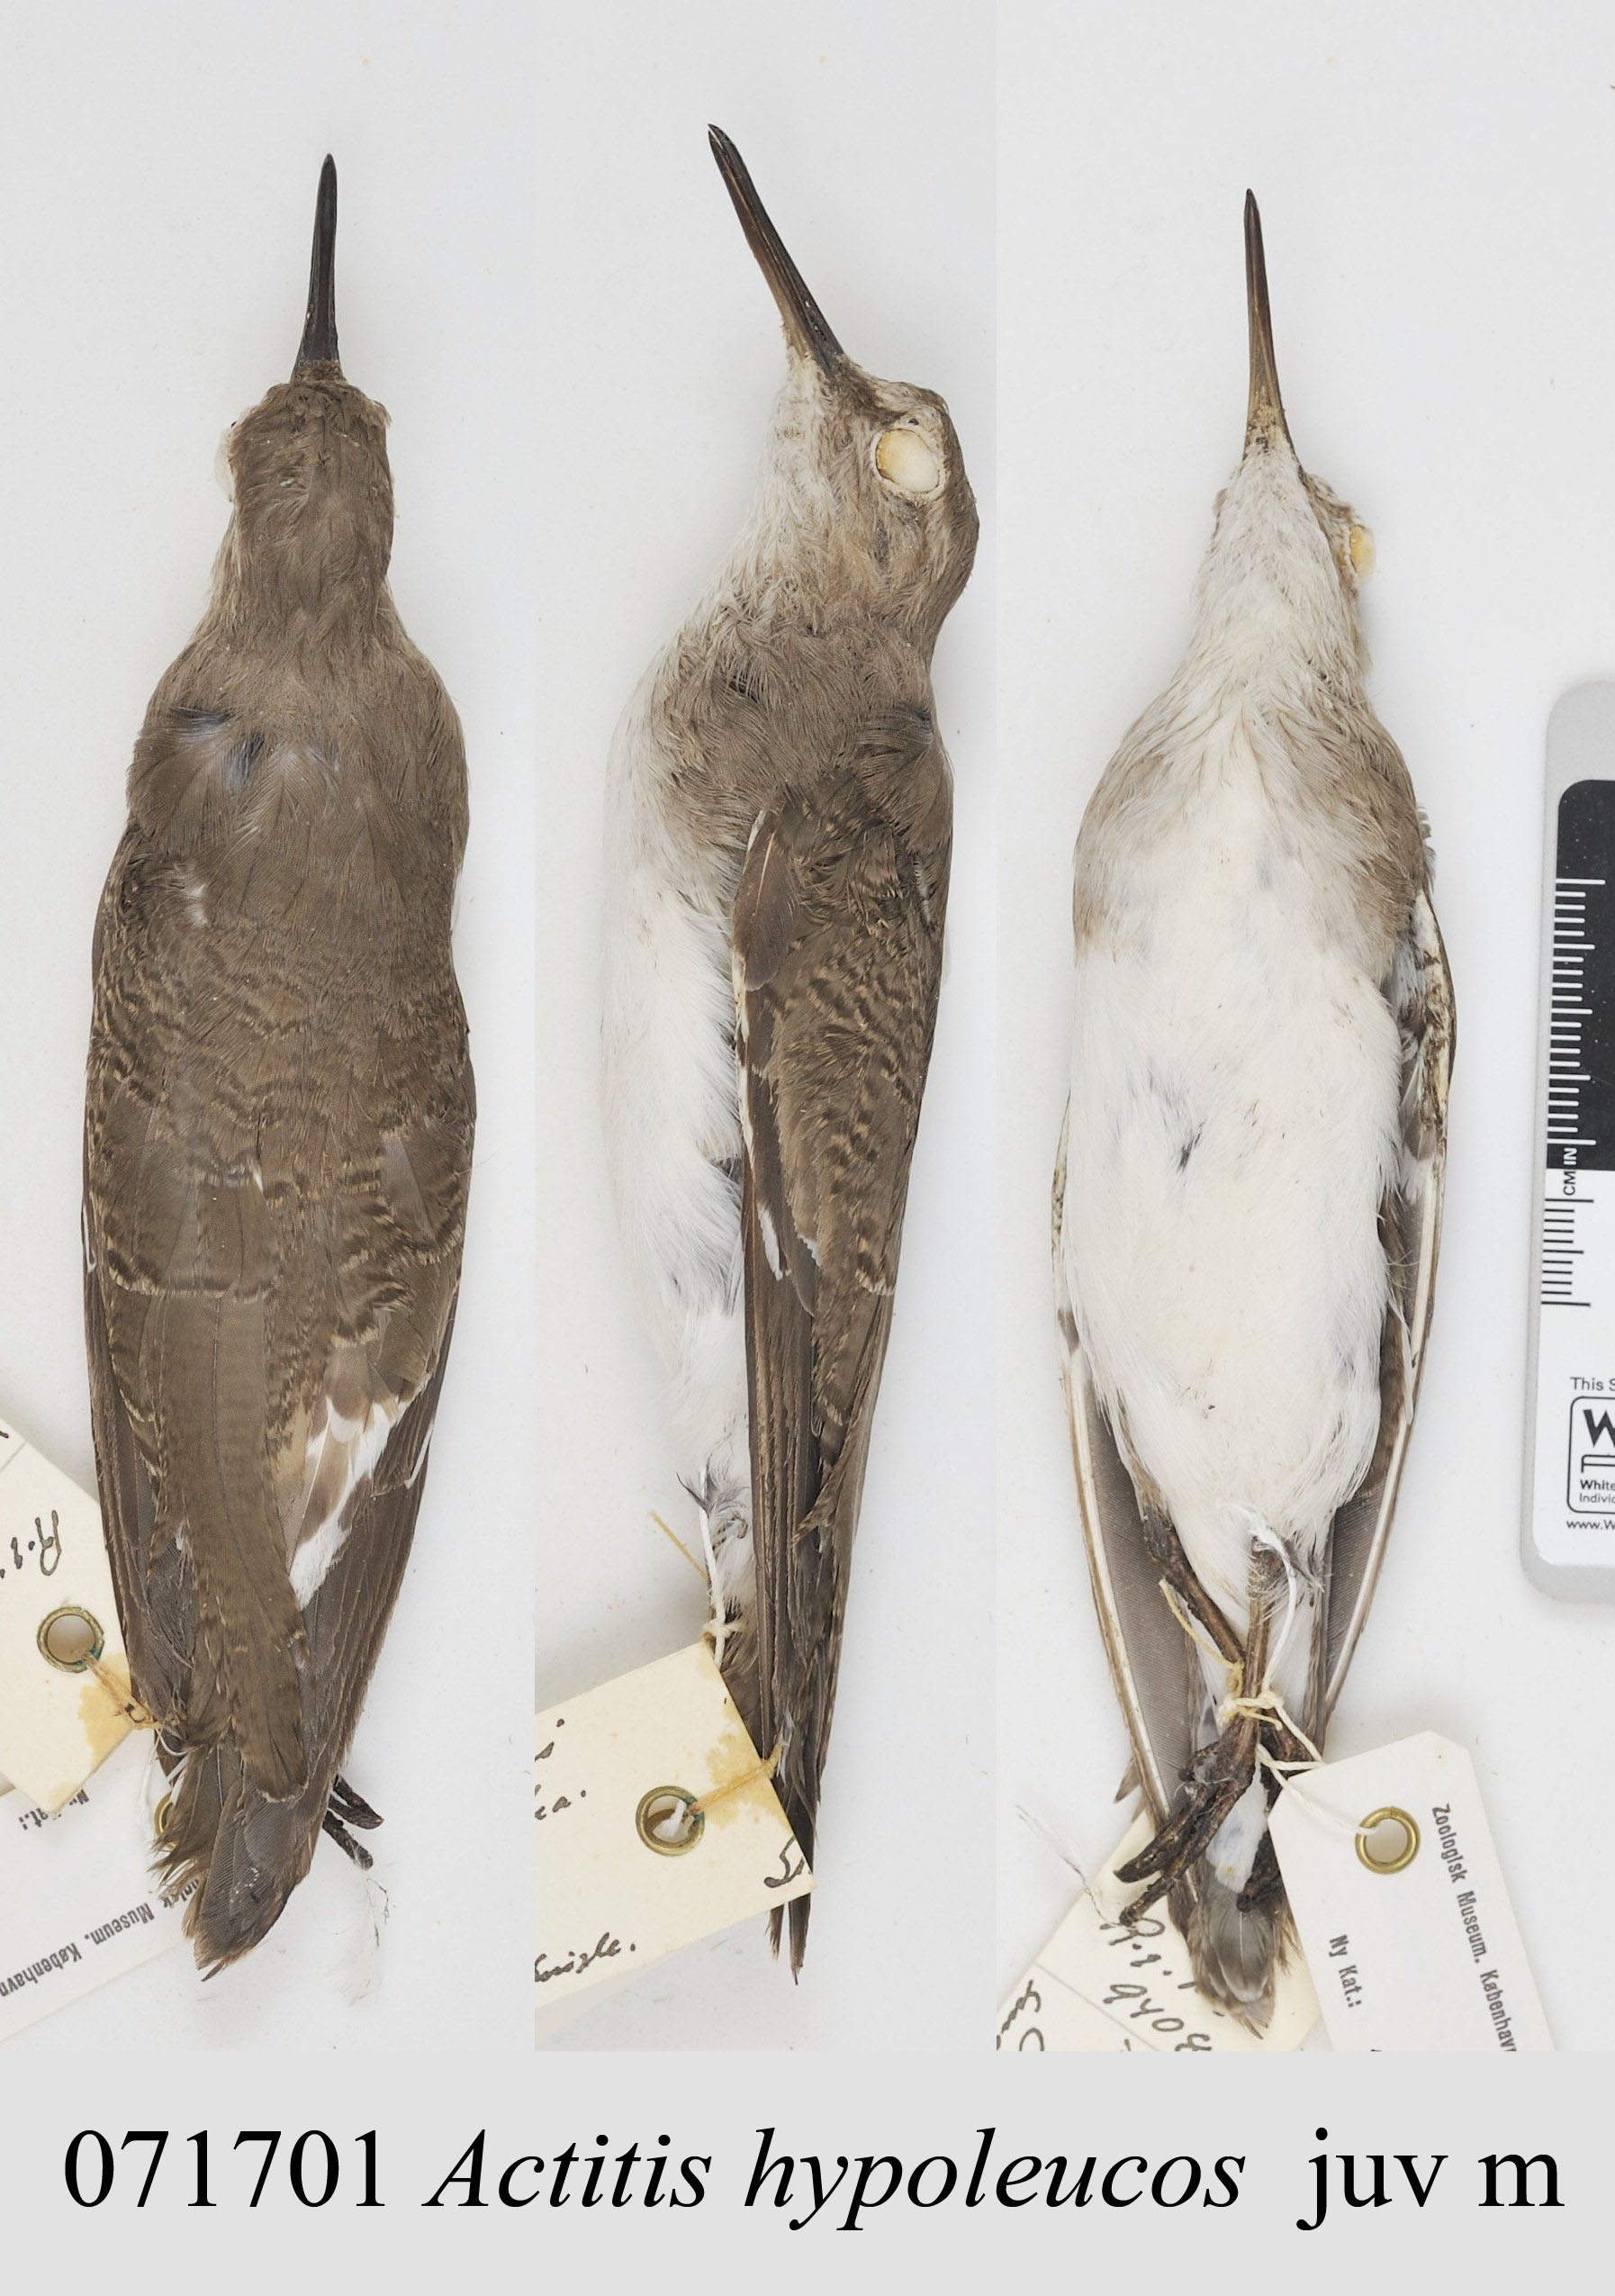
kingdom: Animalia
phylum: Chordata
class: Aves
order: Charadriiformes
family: Scolopacidae
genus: Actitis
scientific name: Actitis hypoleucos
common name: Common sandpiper
